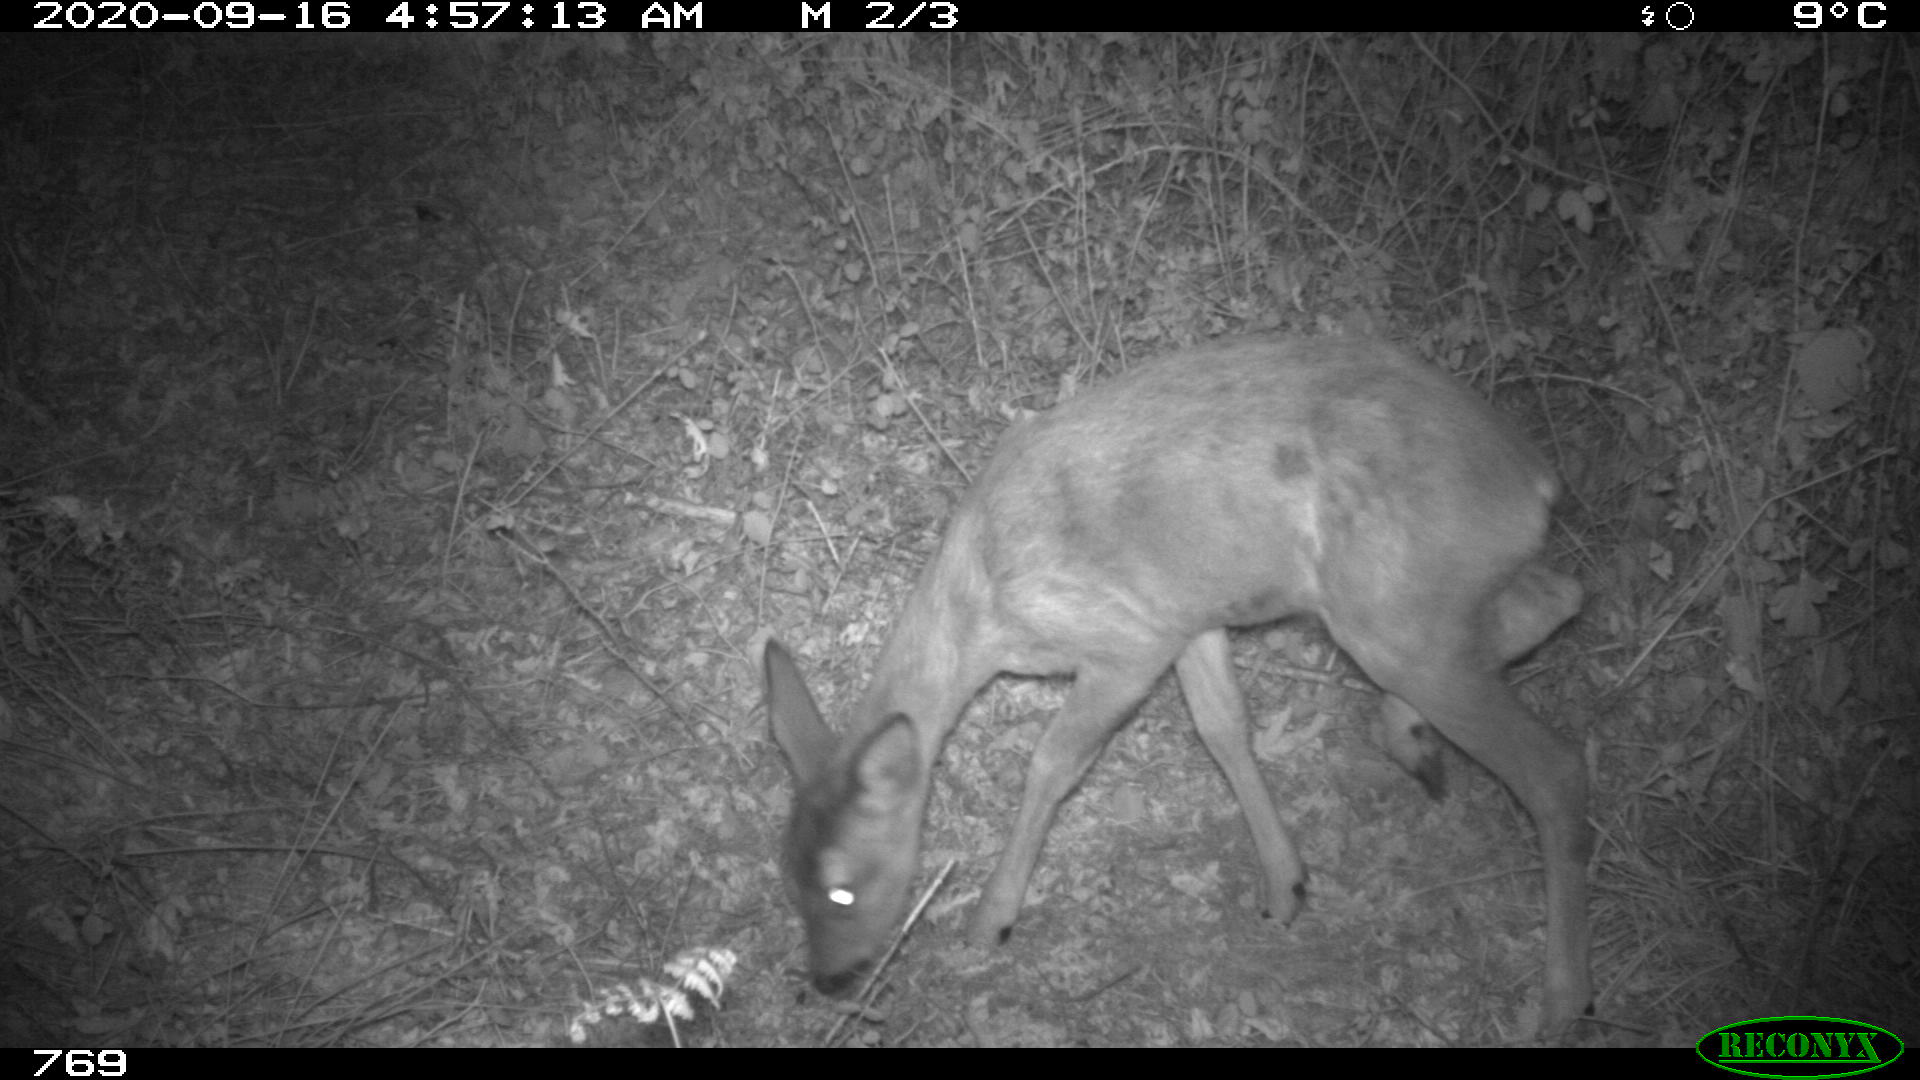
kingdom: Animalia
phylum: Chordata
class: Mammalia
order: Artiodactyla
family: Cervidae
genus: Capreolus
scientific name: Capreolus capreolus
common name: Western roe deer
